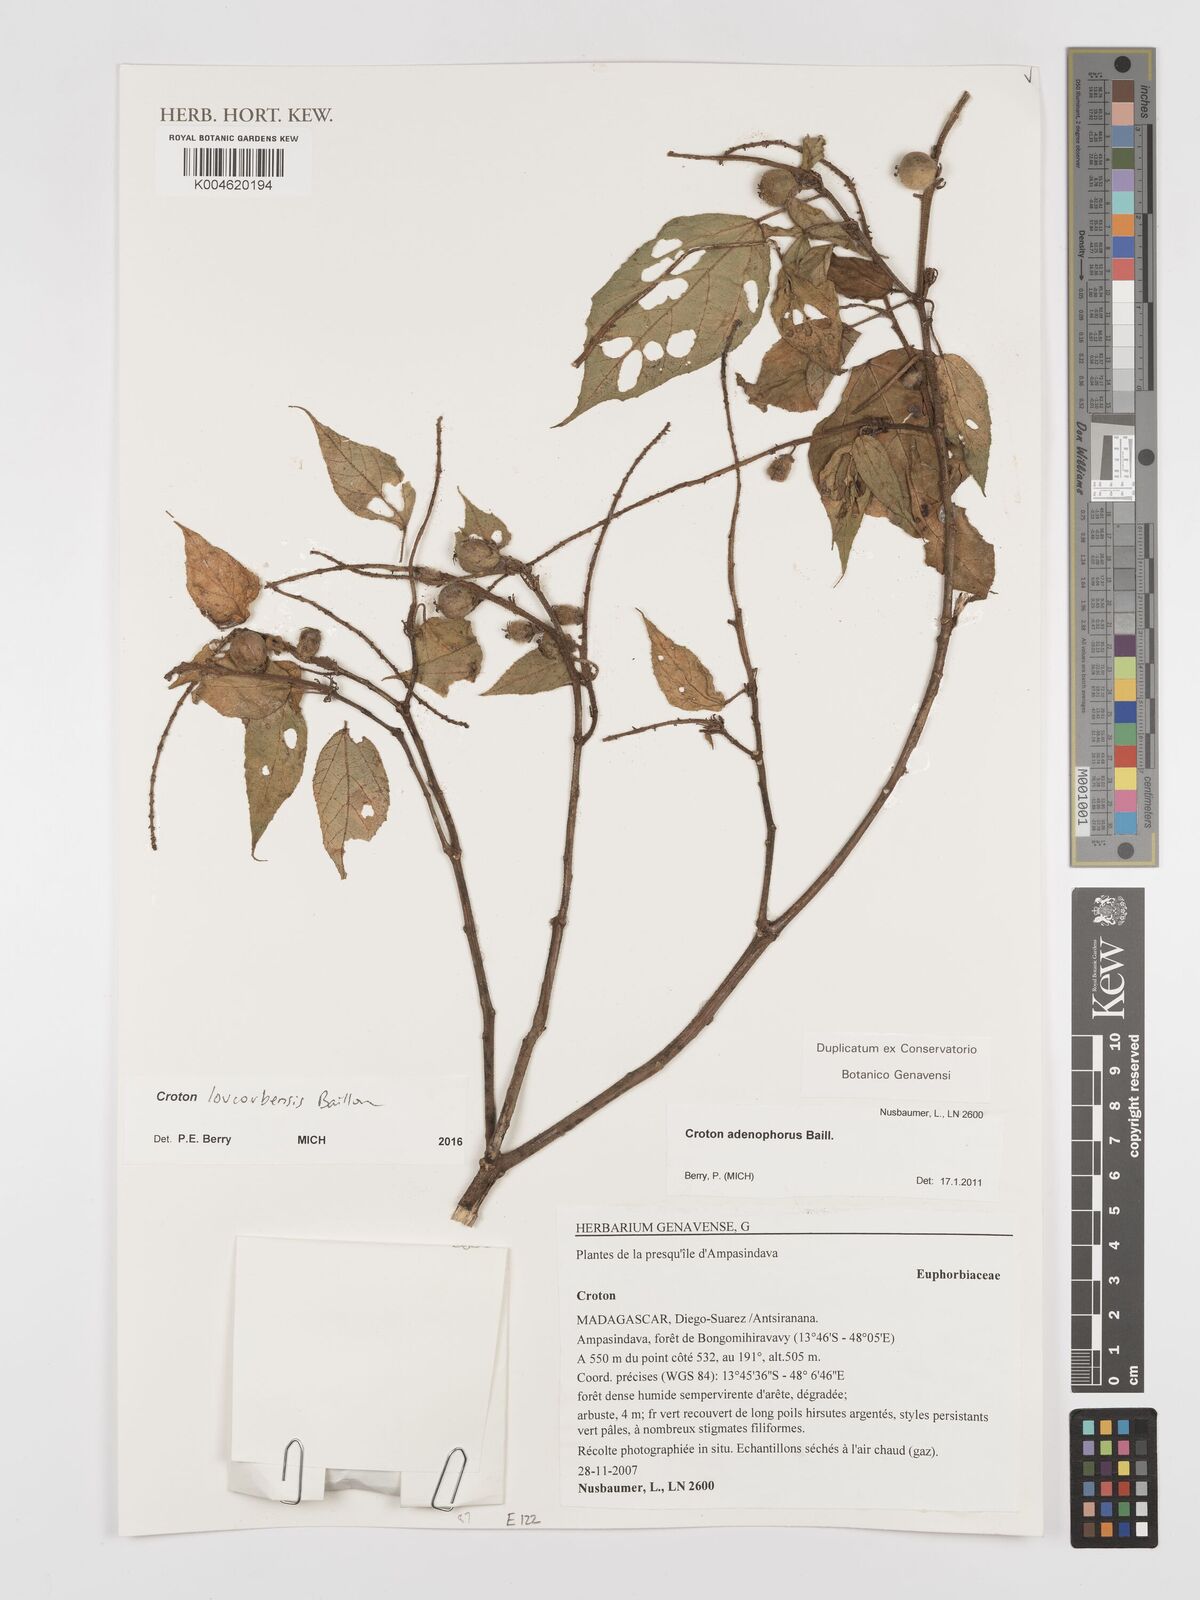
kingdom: Plantae
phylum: Tracheophyta
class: Magnoliopsida
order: Malpighiales
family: Euphorbiaceae
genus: Croton
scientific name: Croton loucoubensis
